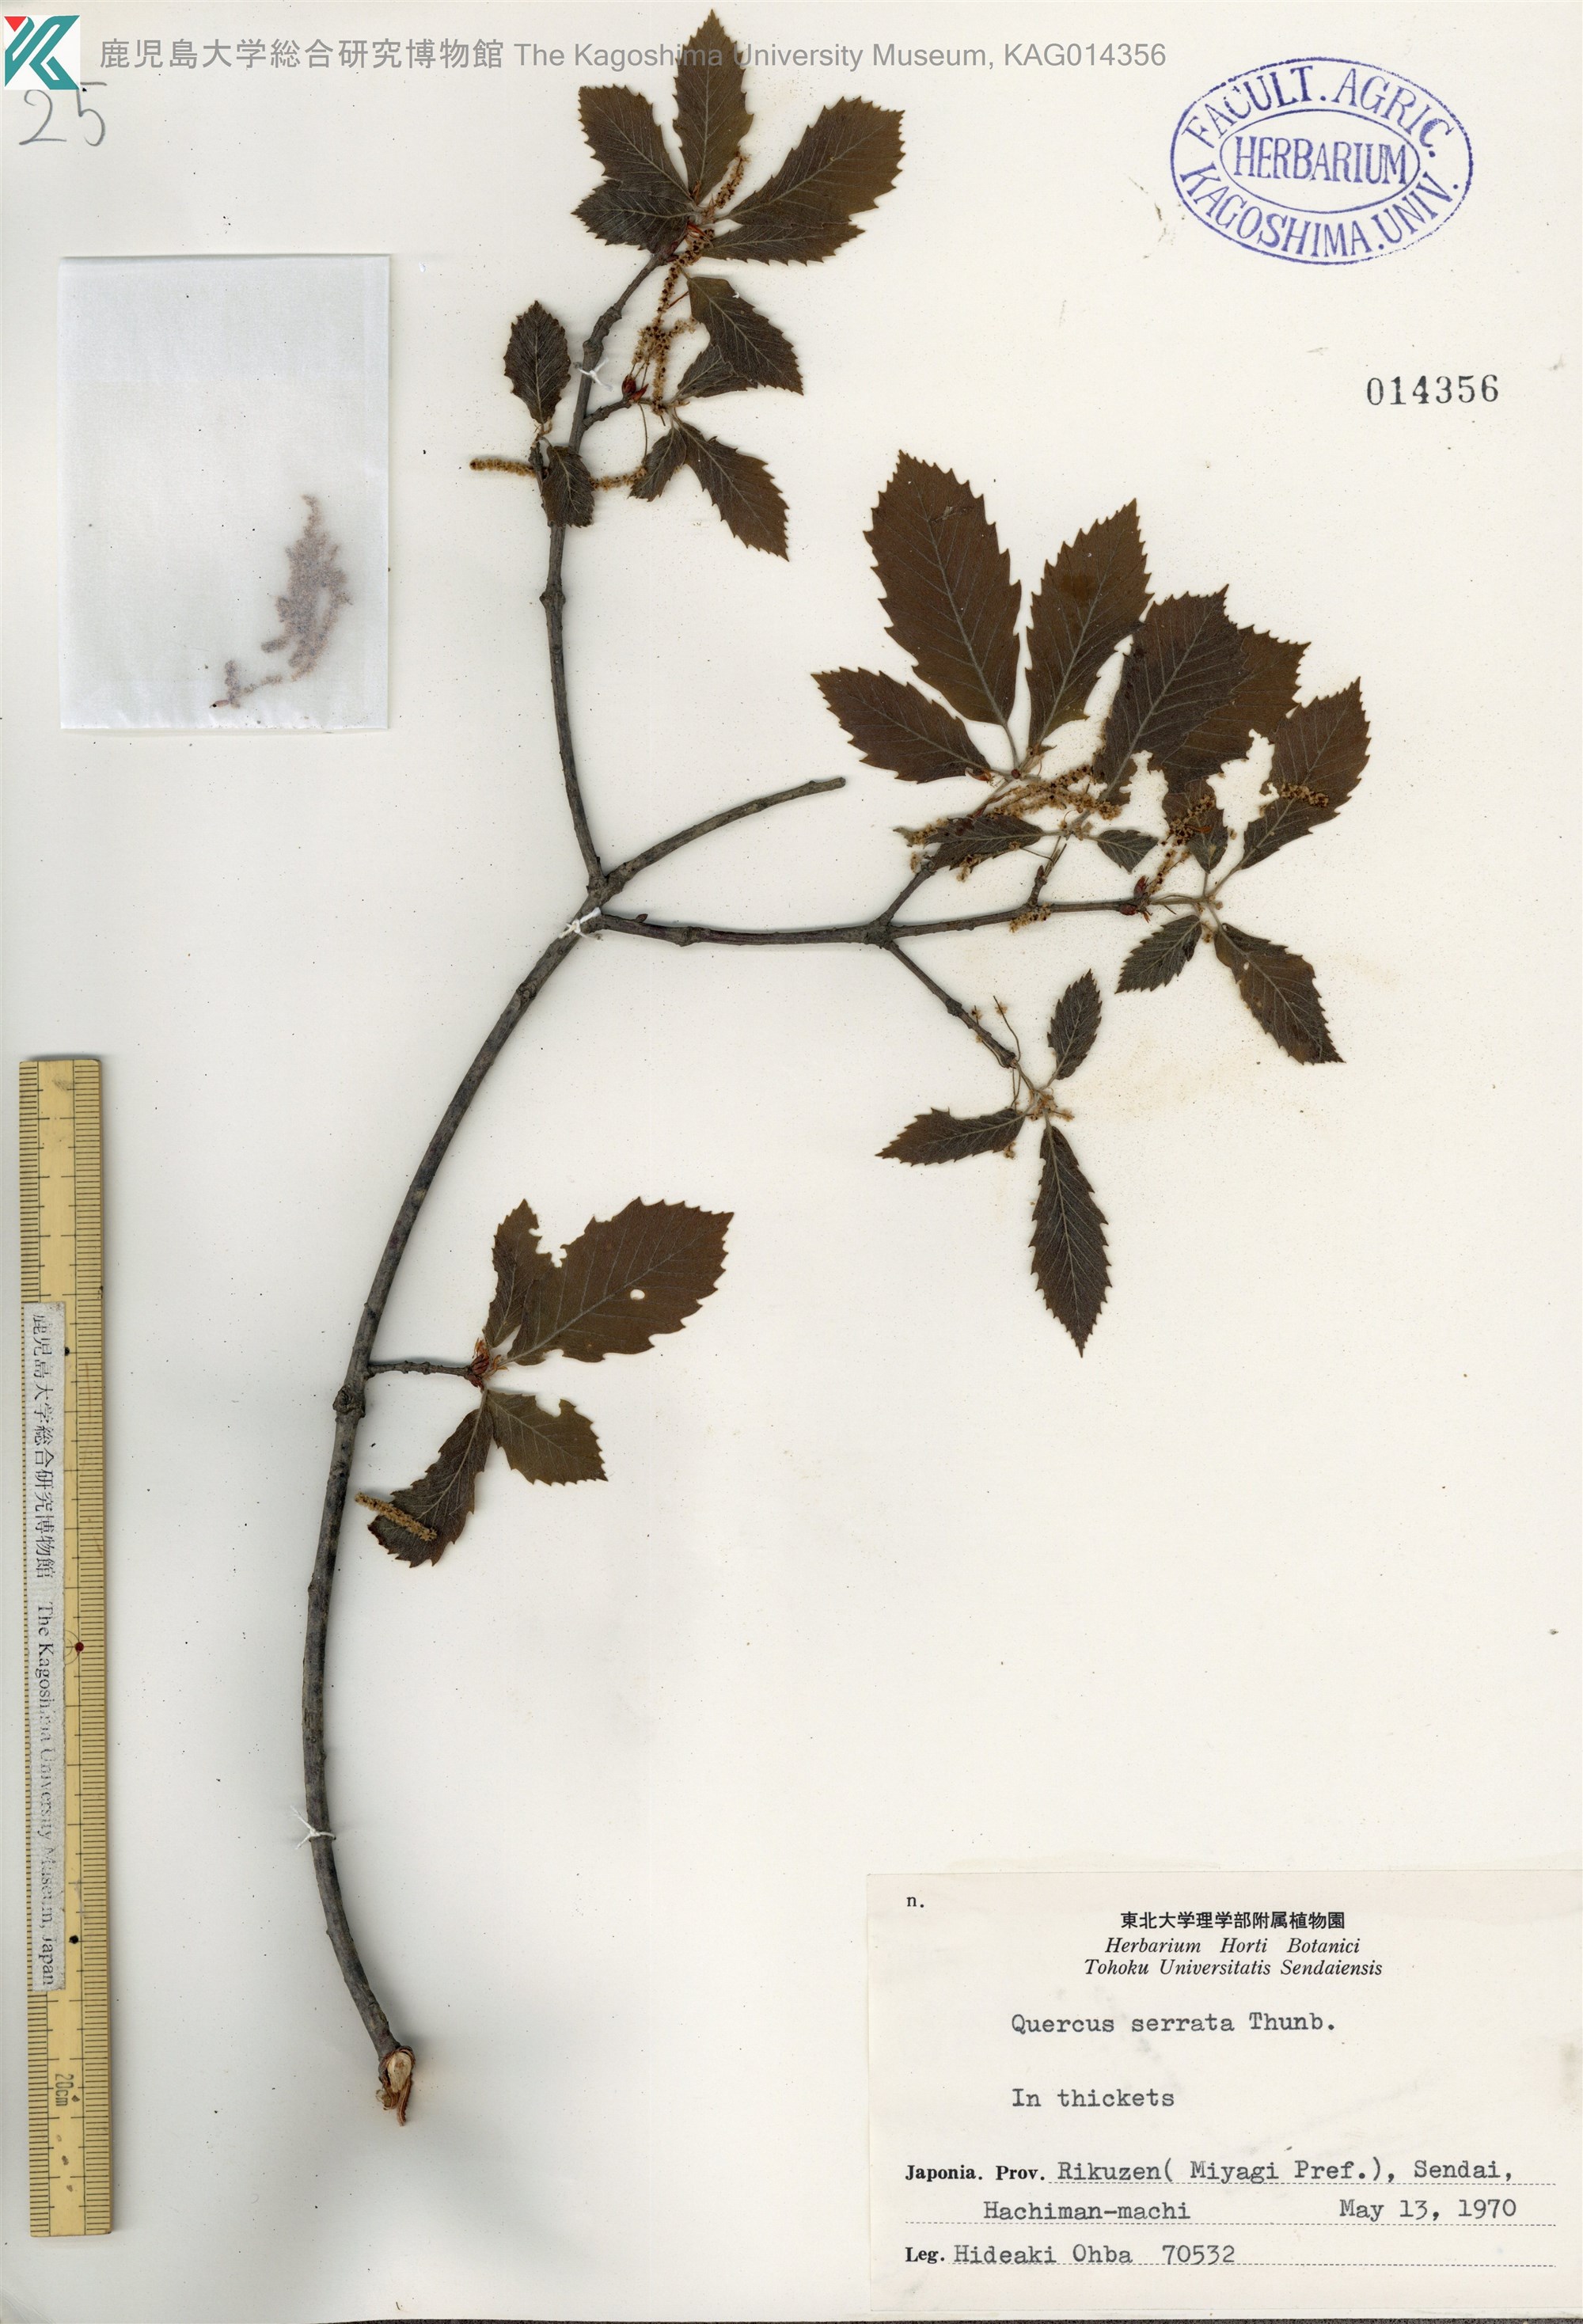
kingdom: Plantae
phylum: Tracheophyta
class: Magnoliopsida
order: Fagales
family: Fagaceae
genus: Quercus
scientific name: Quercus serrata
